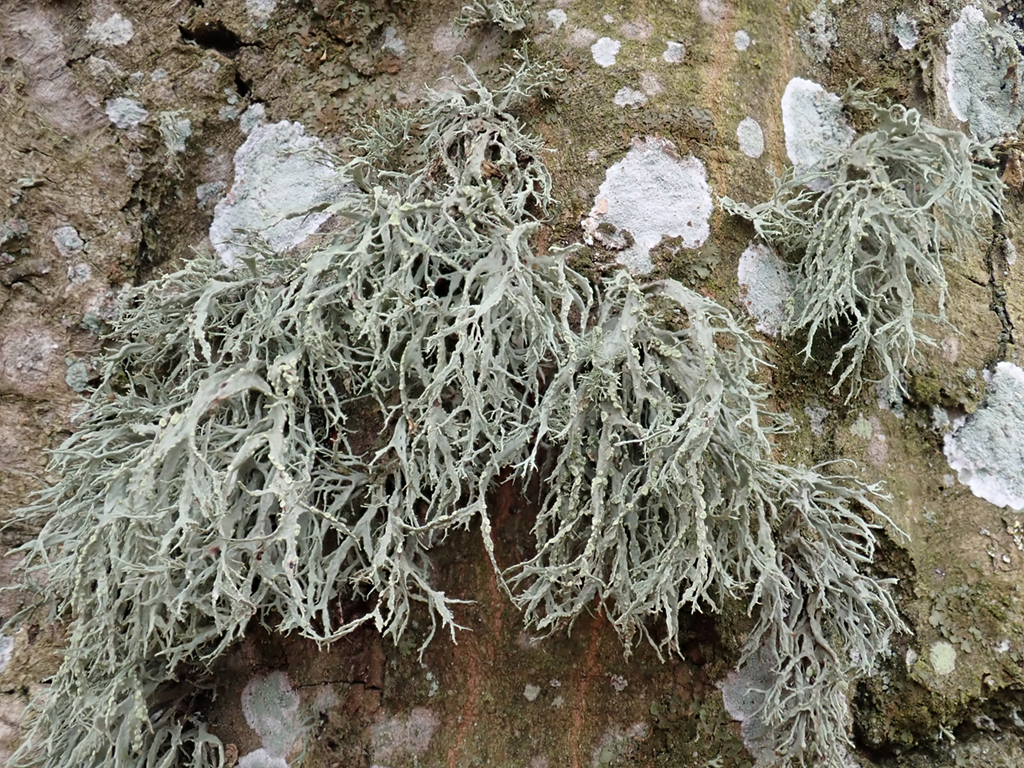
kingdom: Fungi
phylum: Ascomycota
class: Lecanoromycetes
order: Lecanorales
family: Ramalinaceae
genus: Ramalina
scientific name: Ramalina farinacea
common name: melet grenlav
